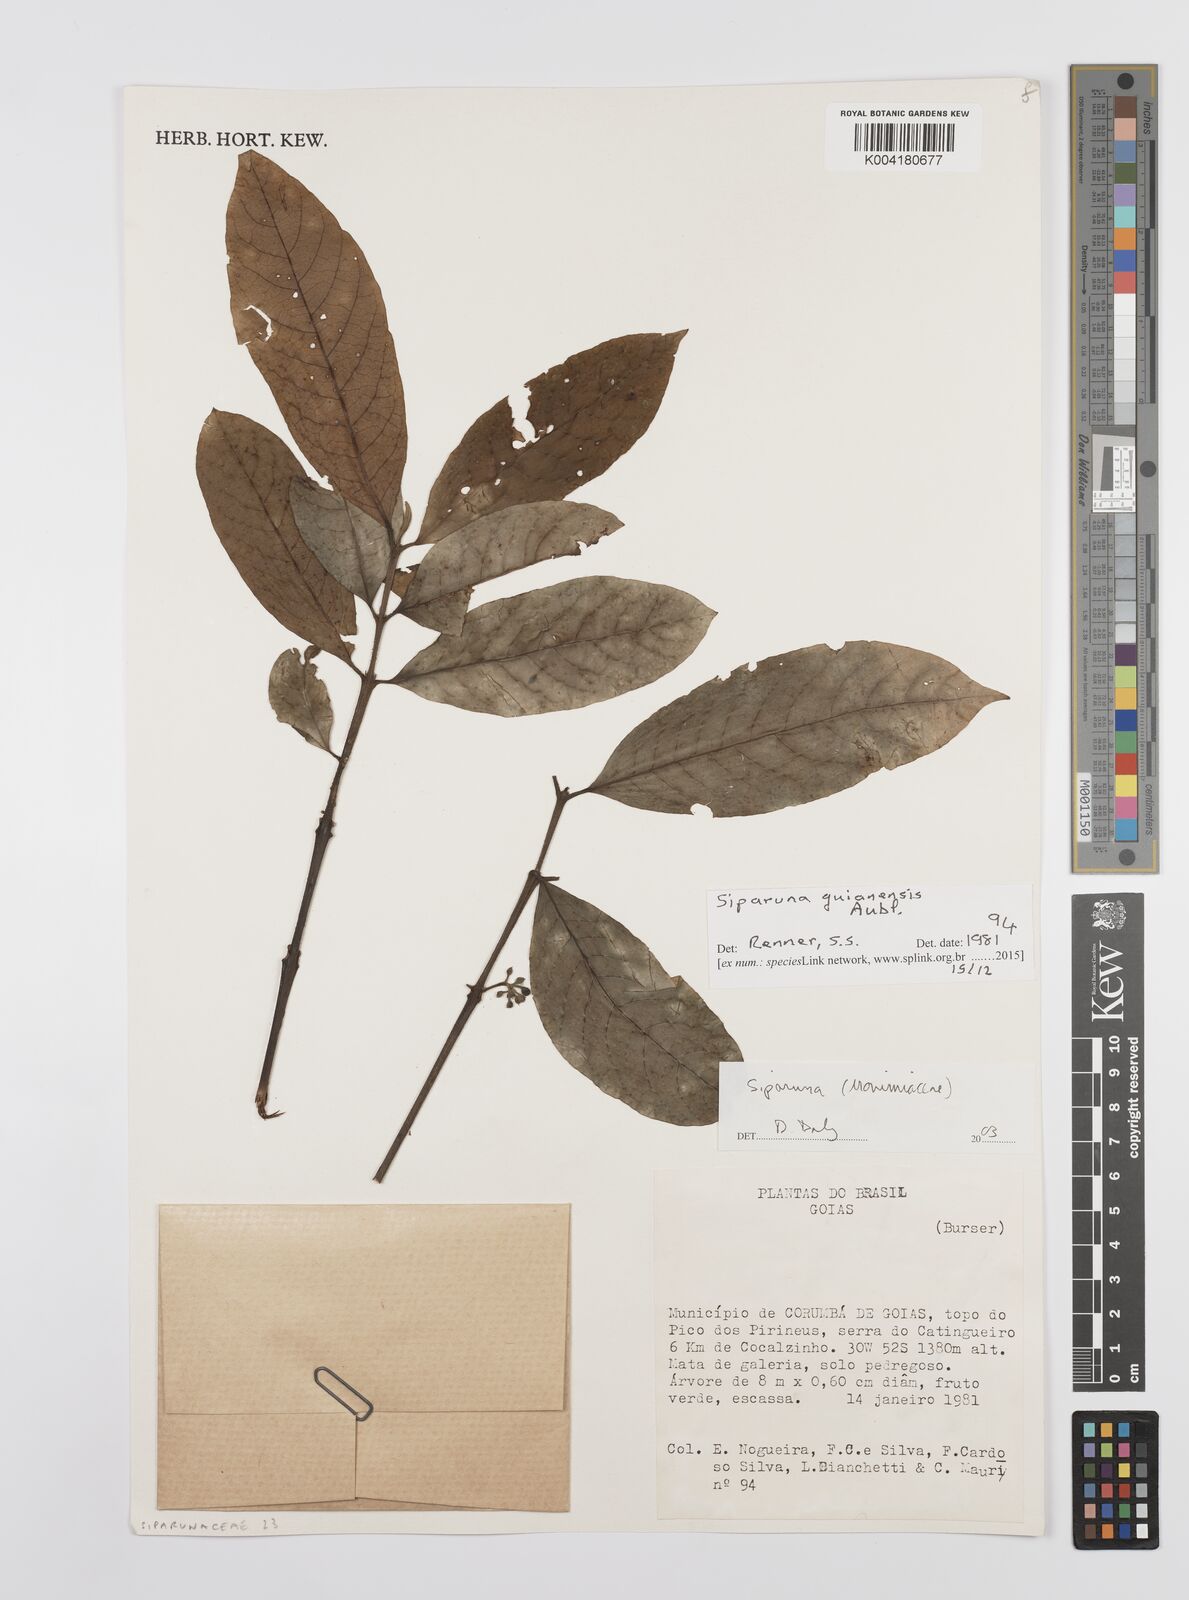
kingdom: Plantae
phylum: Tracheophyta
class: Magnoliopsida
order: Laurales
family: Siparunaceae
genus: Siparuna
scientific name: Siparuna guianensis
